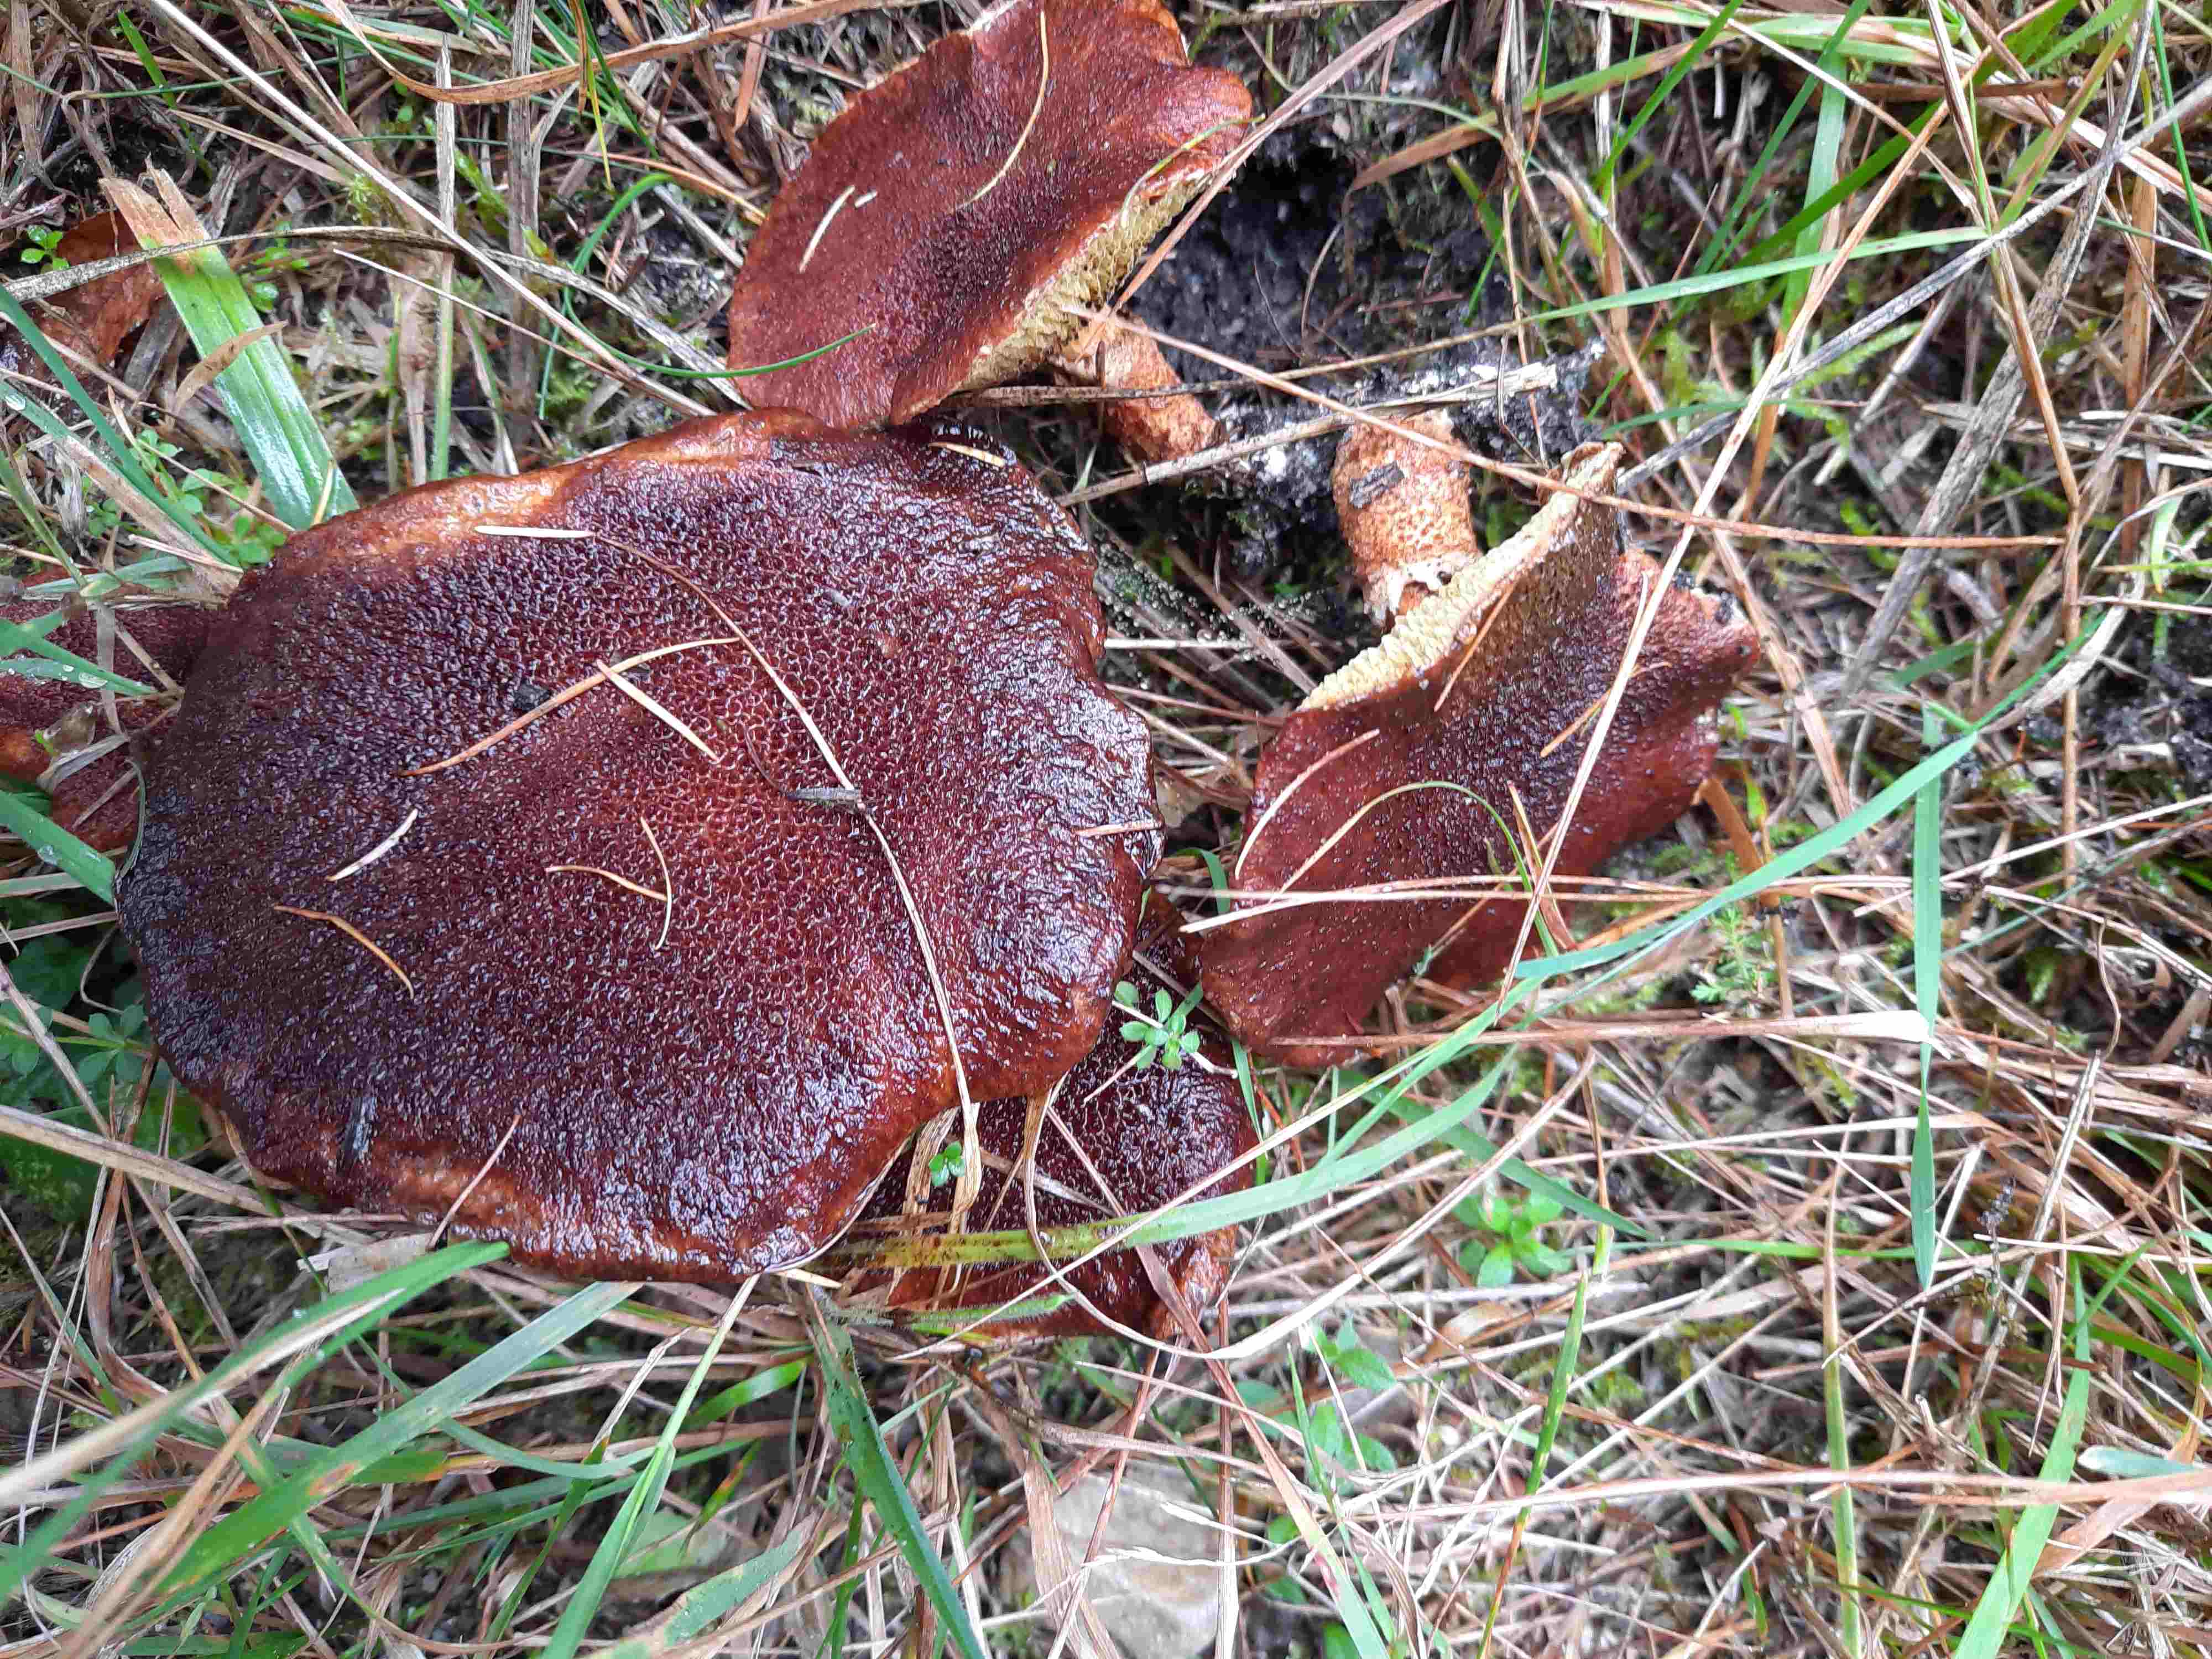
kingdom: Fungi
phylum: Basidiomycota
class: Agaricomycetes
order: Boletales
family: Suillaceae
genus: Suillus
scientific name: Suillus cavipes
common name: hulstokket slimrørhat
